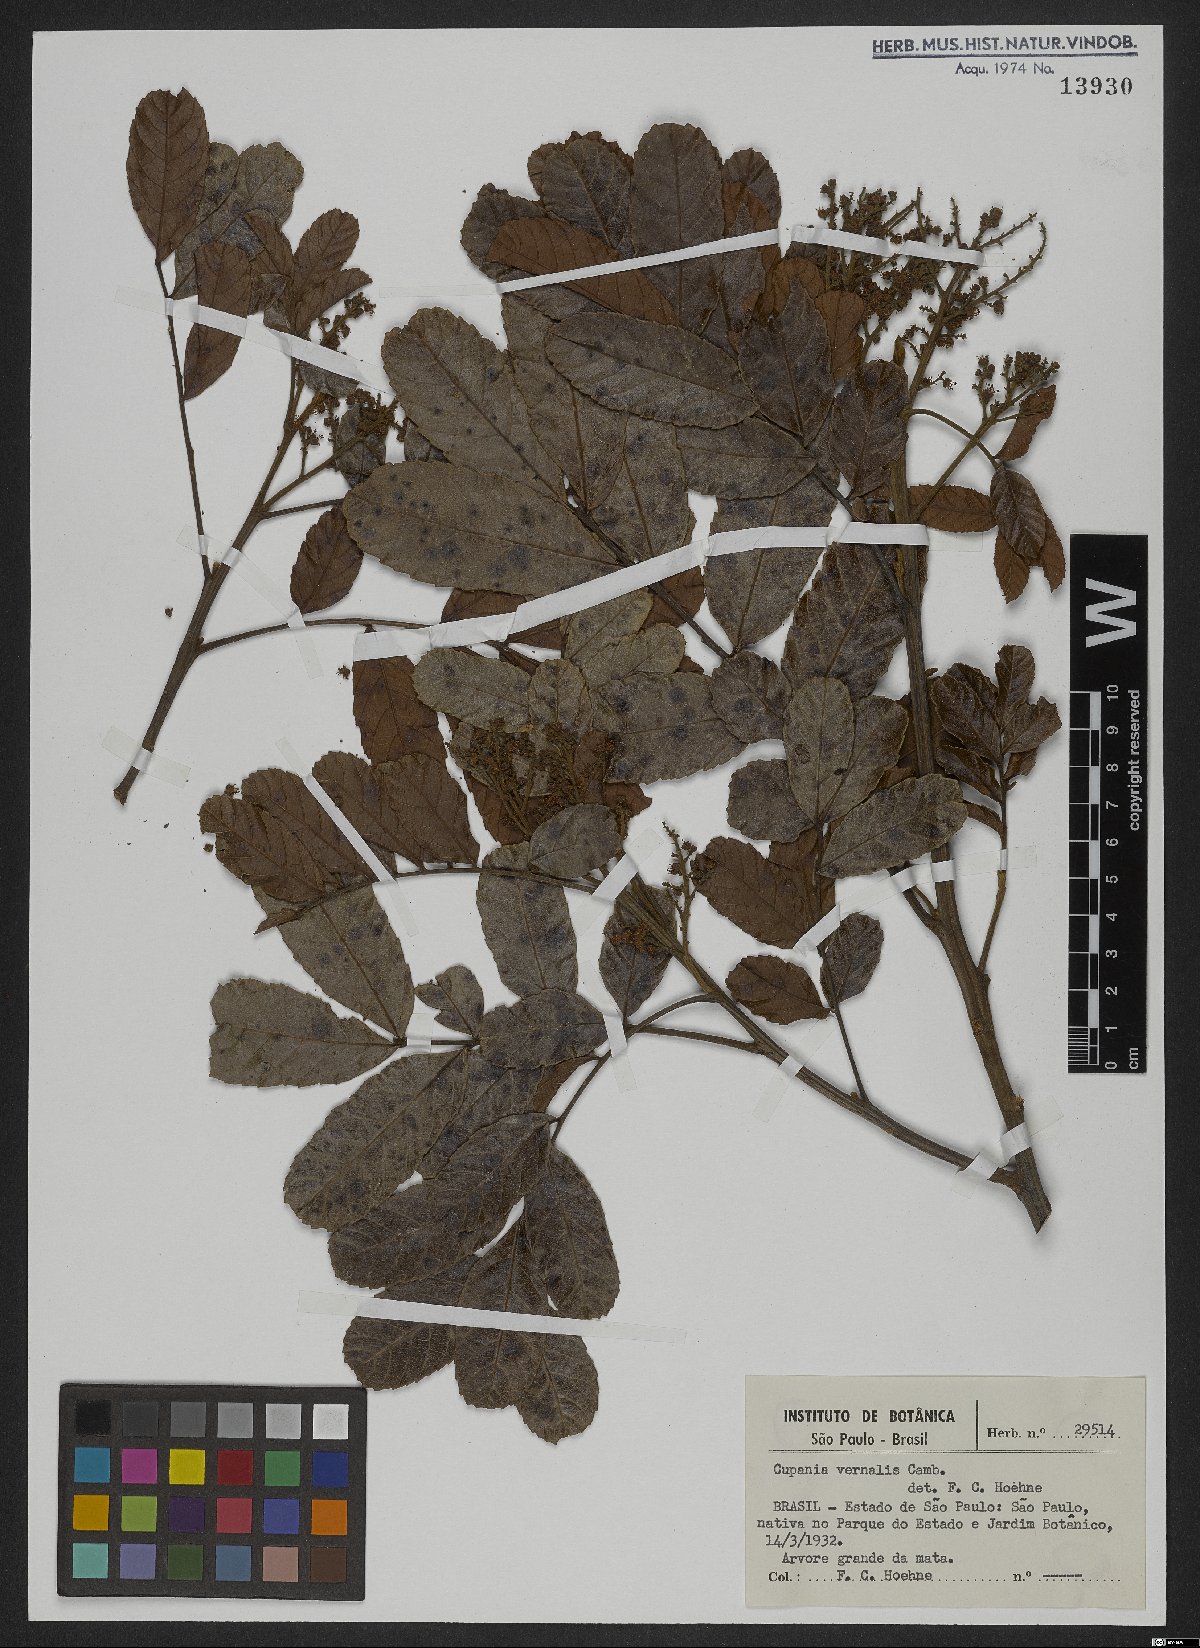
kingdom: Plantae
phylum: Tracheophyta
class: Magnoliopsida
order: Sapindales
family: Sapindaceae
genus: Cupania
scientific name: Cupania vernalis
